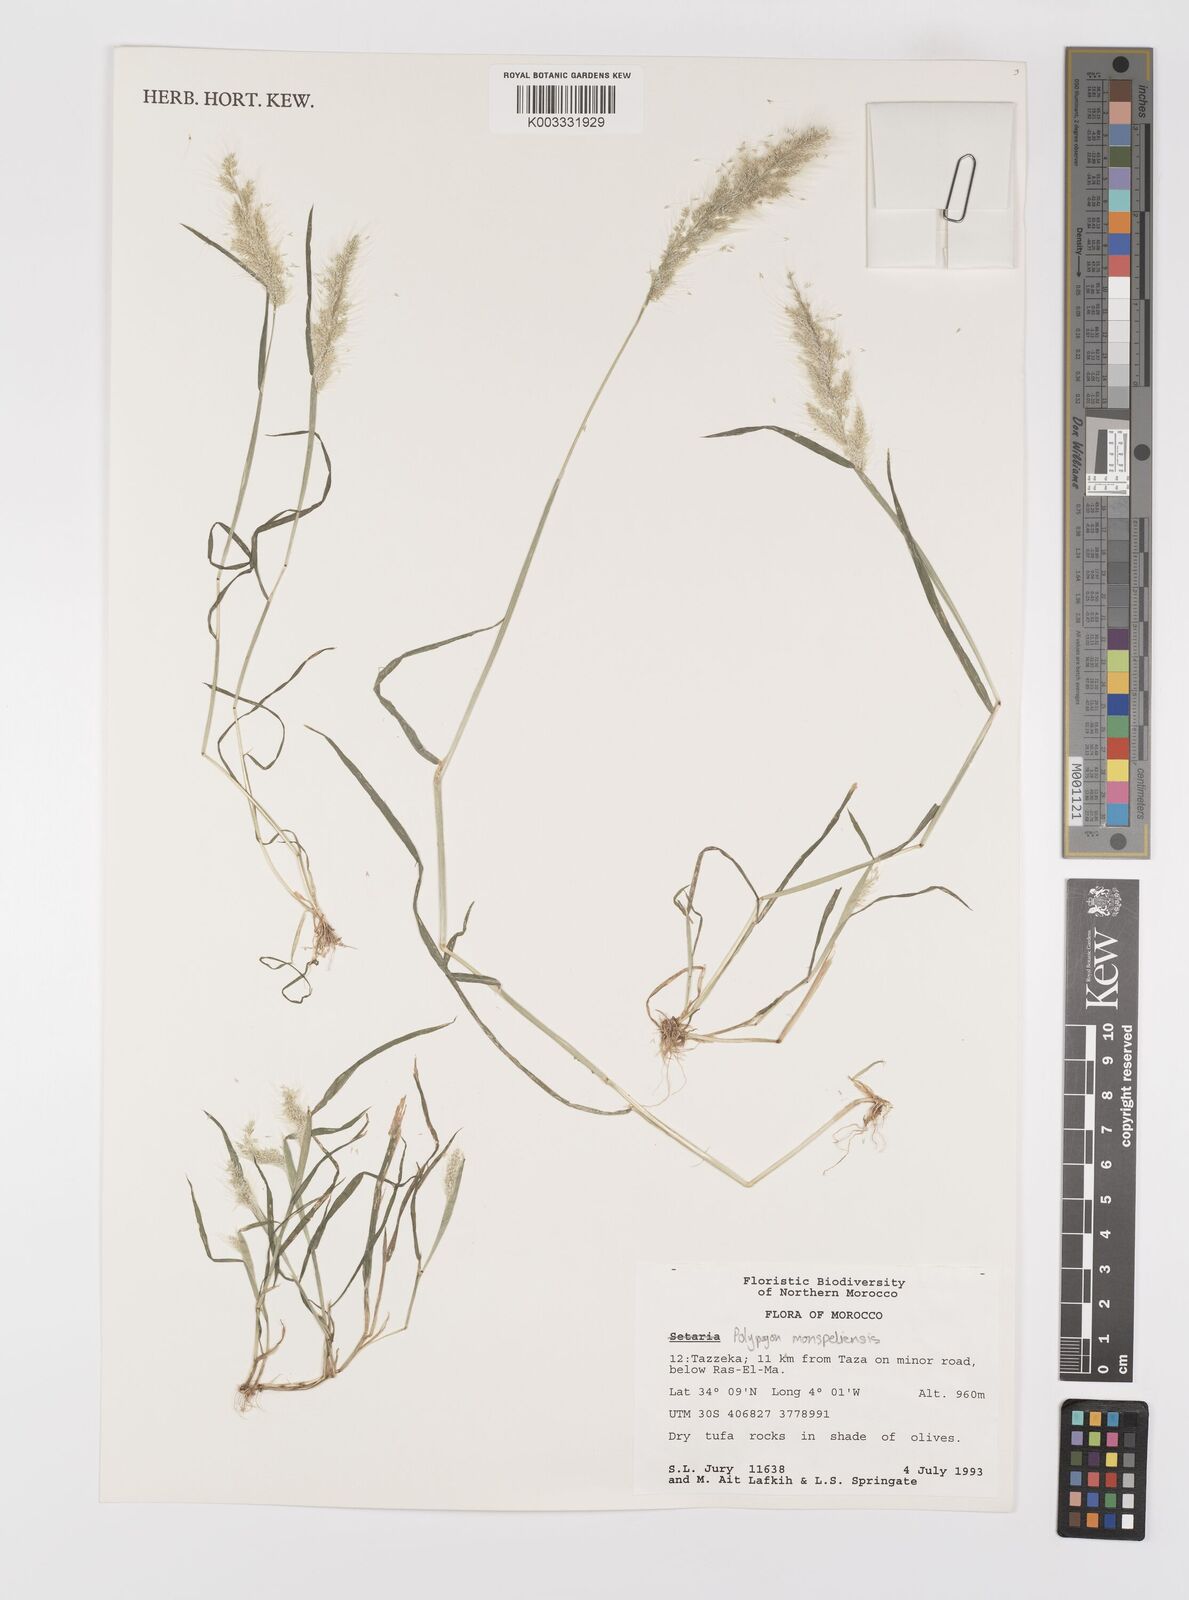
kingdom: Plantae
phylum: Tracheophyta
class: Liliopsida
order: Poales
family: Poaceae
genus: Polypogon
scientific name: Polypogon monspeliensis
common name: Annual rabbitsfoot grass
